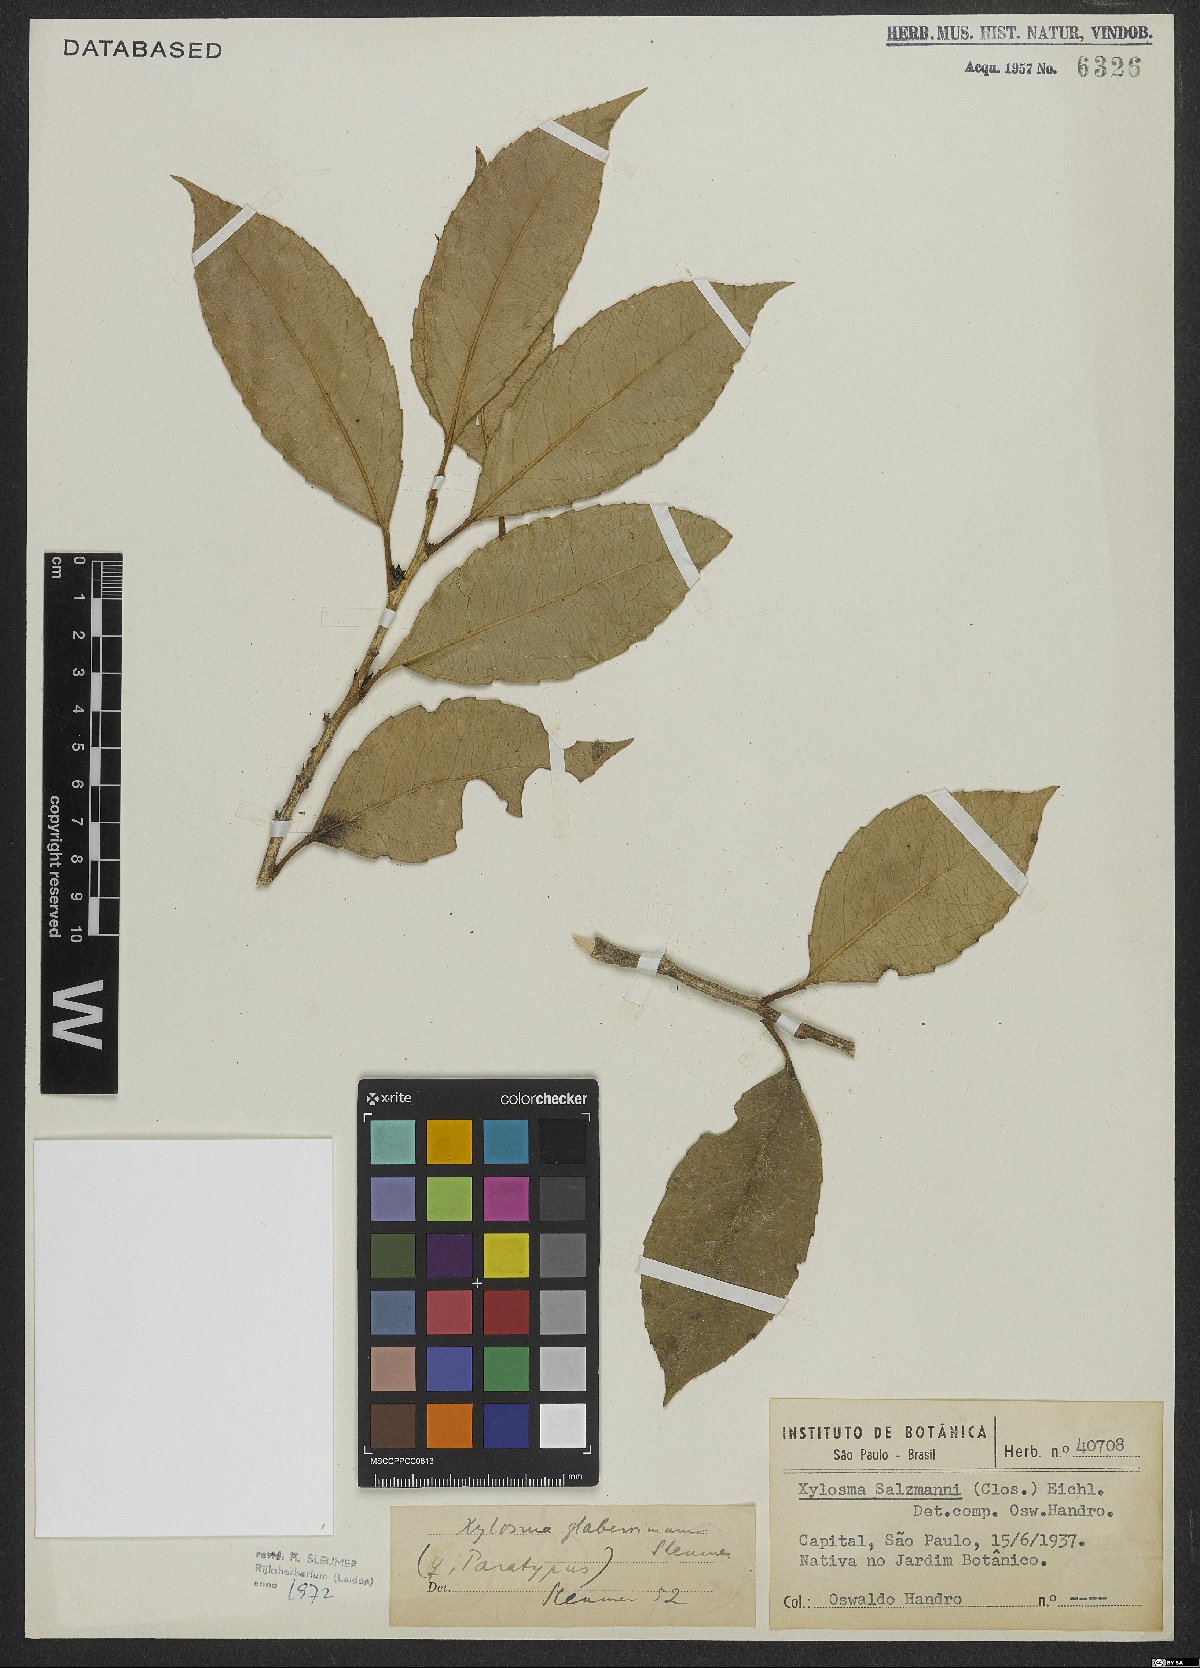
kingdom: Plantae
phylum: Tracheophyta
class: Magnoliopsida
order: Malpighiales
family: Salicaceae
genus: Xylosma
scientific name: Xylosma glaberrima
